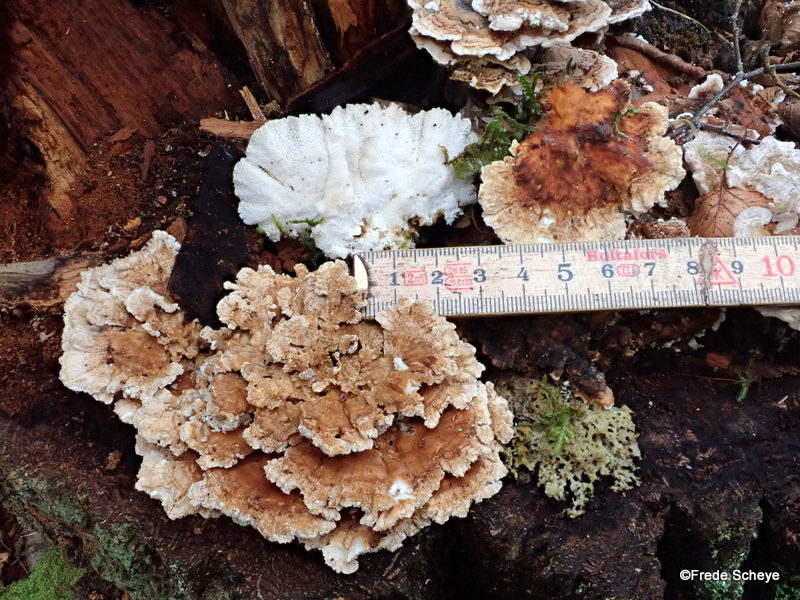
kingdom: Fungi
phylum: Basidiomycota
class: Agaricomycetes
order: Polyporales
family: Polyporaceae
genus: Trametes
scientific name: Trametes ochracea
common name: bæltet læderporesvamp
